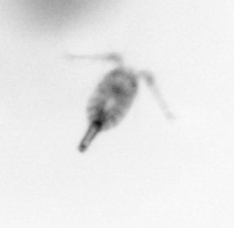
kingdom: Animalia
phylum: Arthropoda
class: Copepoda
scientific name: Copepoda
